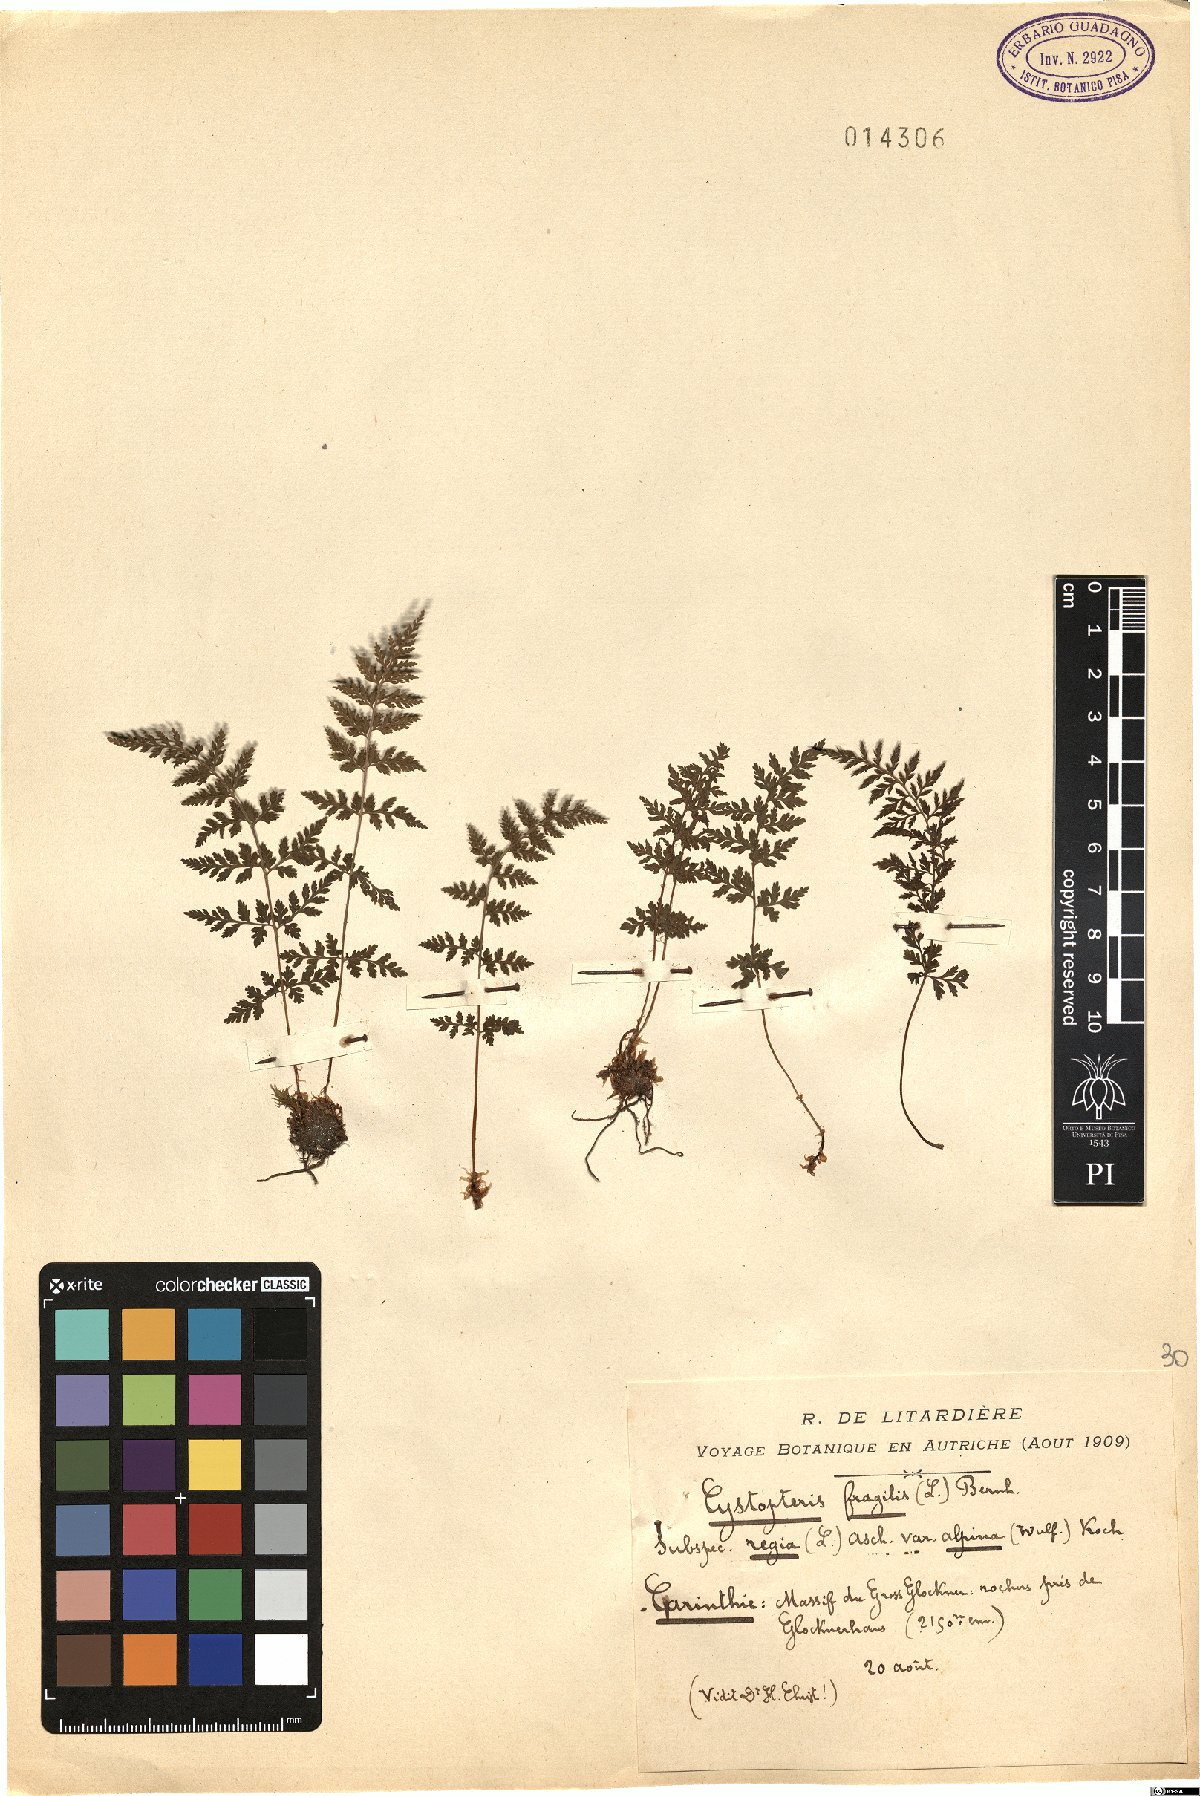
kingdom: Plantae
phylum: Tracheophyta
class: Polypodiopsida
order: Polypodiales
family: Cystopteridaceae
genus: Cystopteris
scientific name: Cystopteris alpina
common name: Alpine bladder-fern
